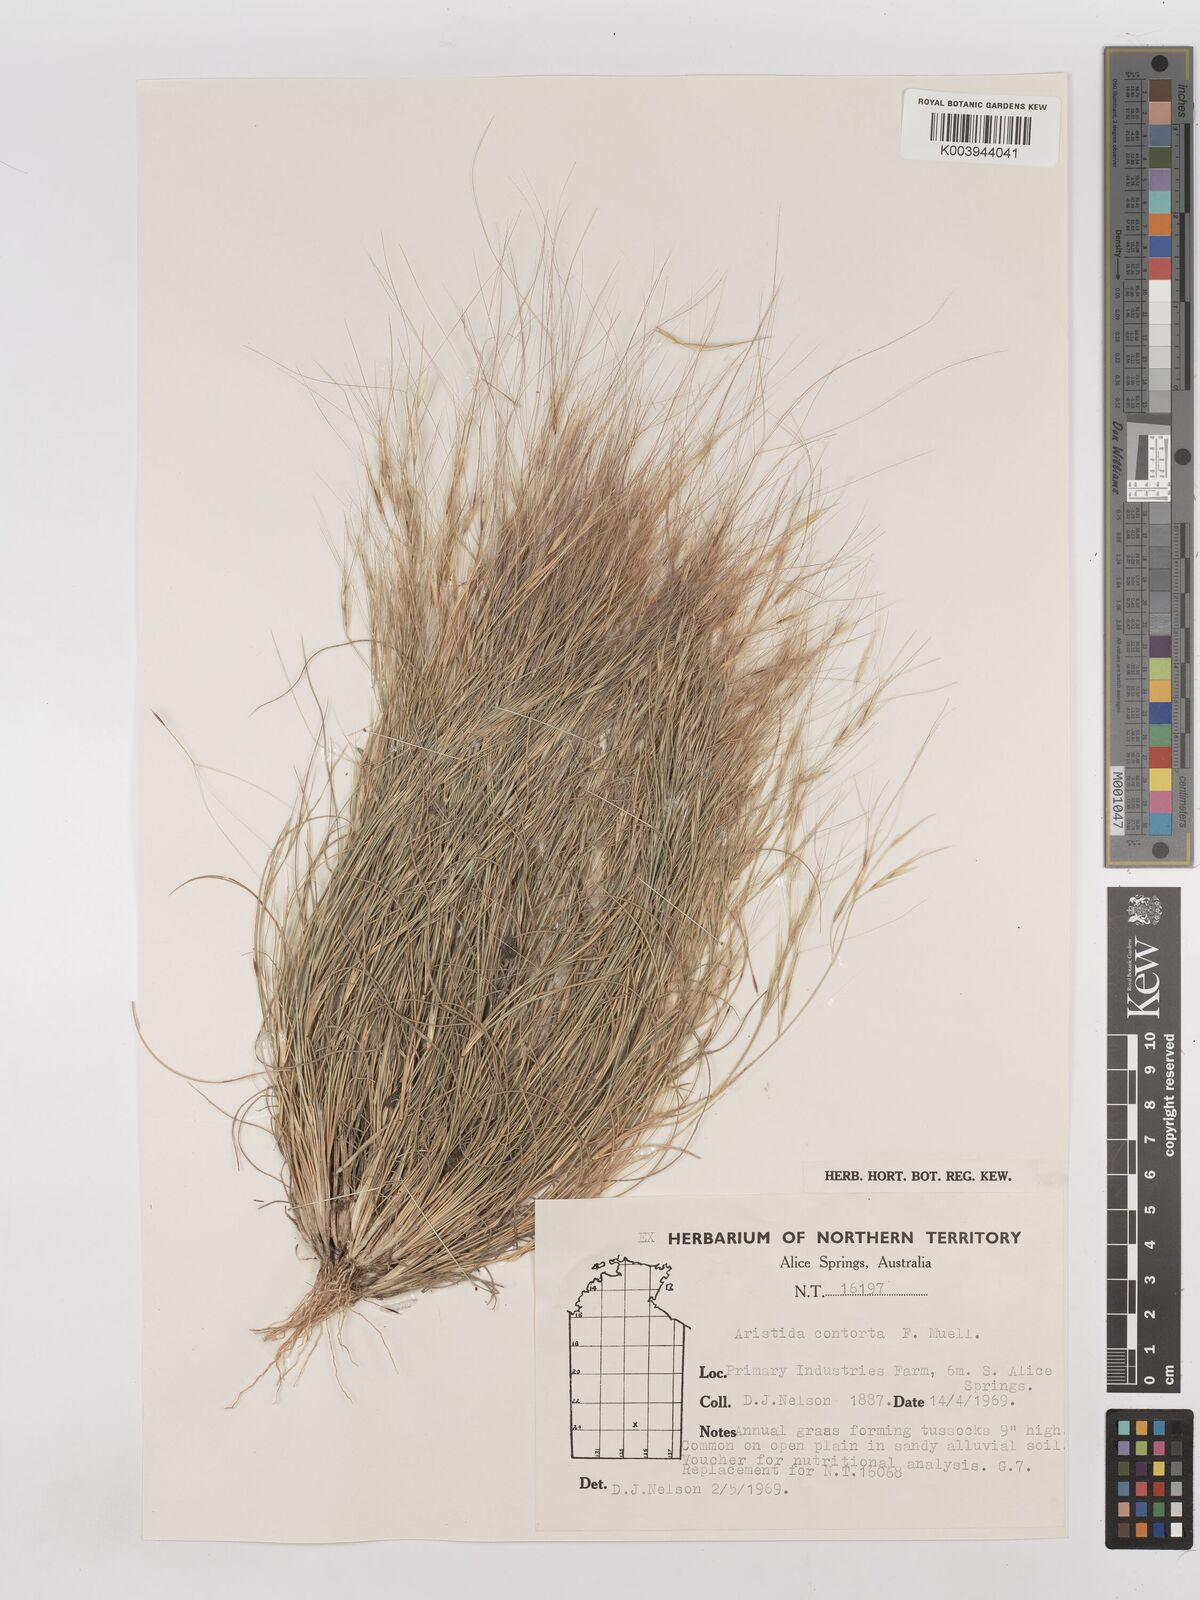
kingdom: Plantae
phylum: Tracheophyta
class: Liliopsida
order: Poales
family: Poaceae
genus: Aristida
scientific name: Aristida contorta
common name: Bunch kerosene grass
